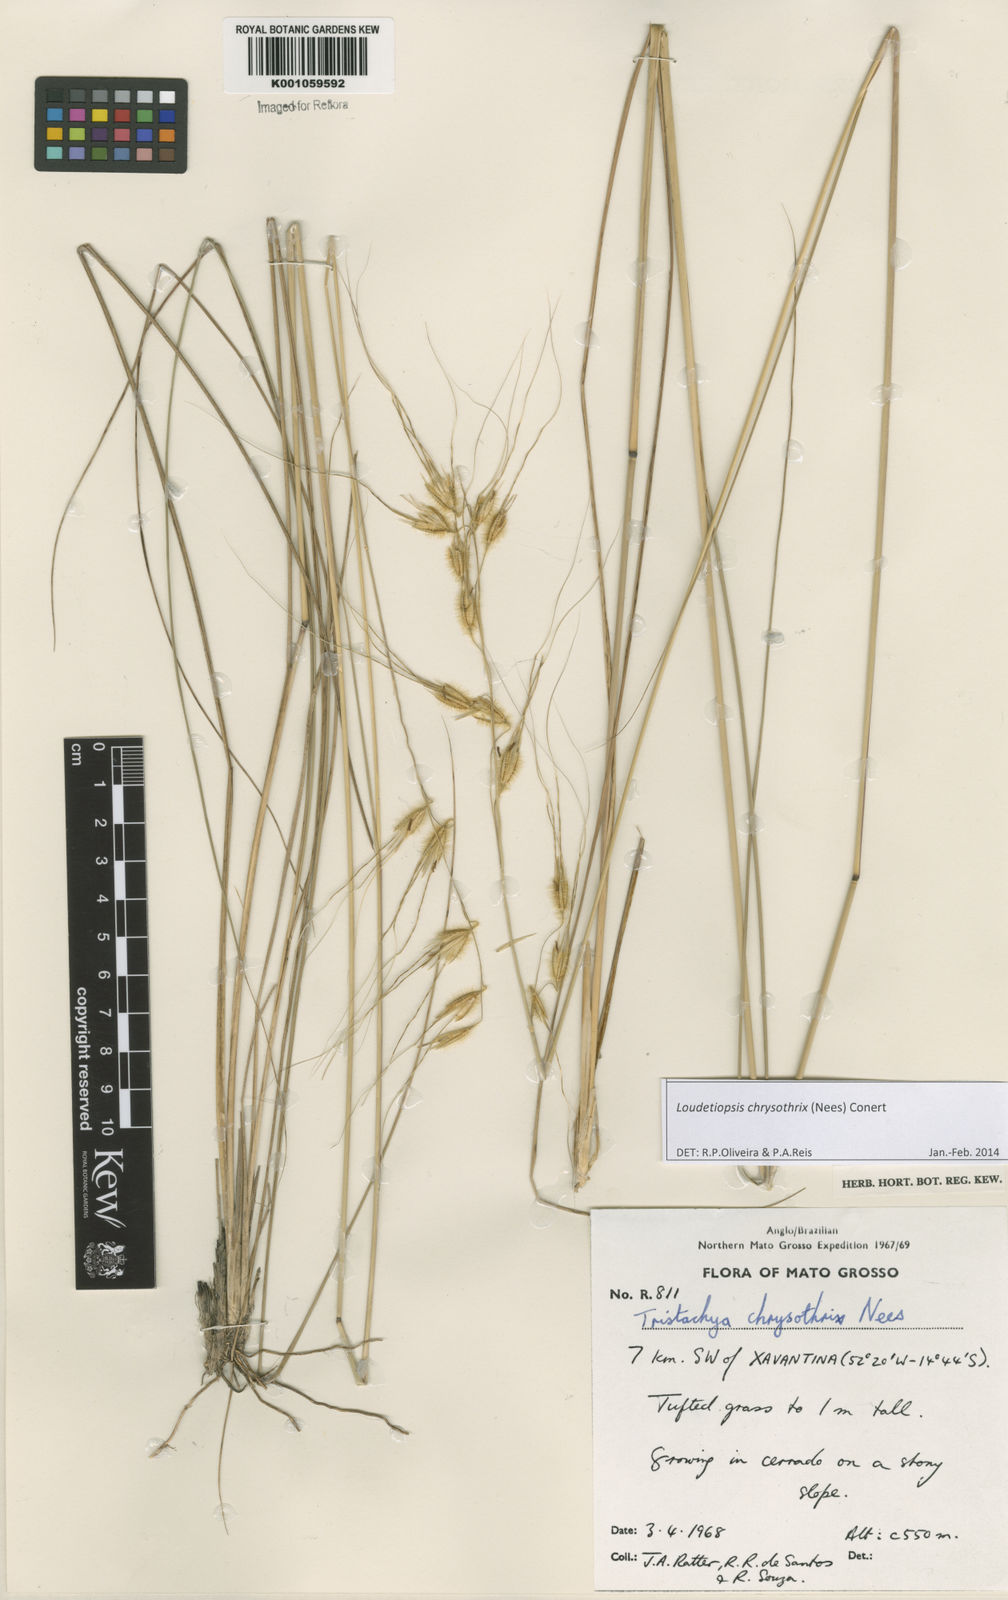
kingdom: Plantae
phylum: Tracheophyta
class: Liliopsida
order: Poales
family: Poaceae
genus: Loudetiopsis
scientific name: Loudetiopsis chrysothrix
